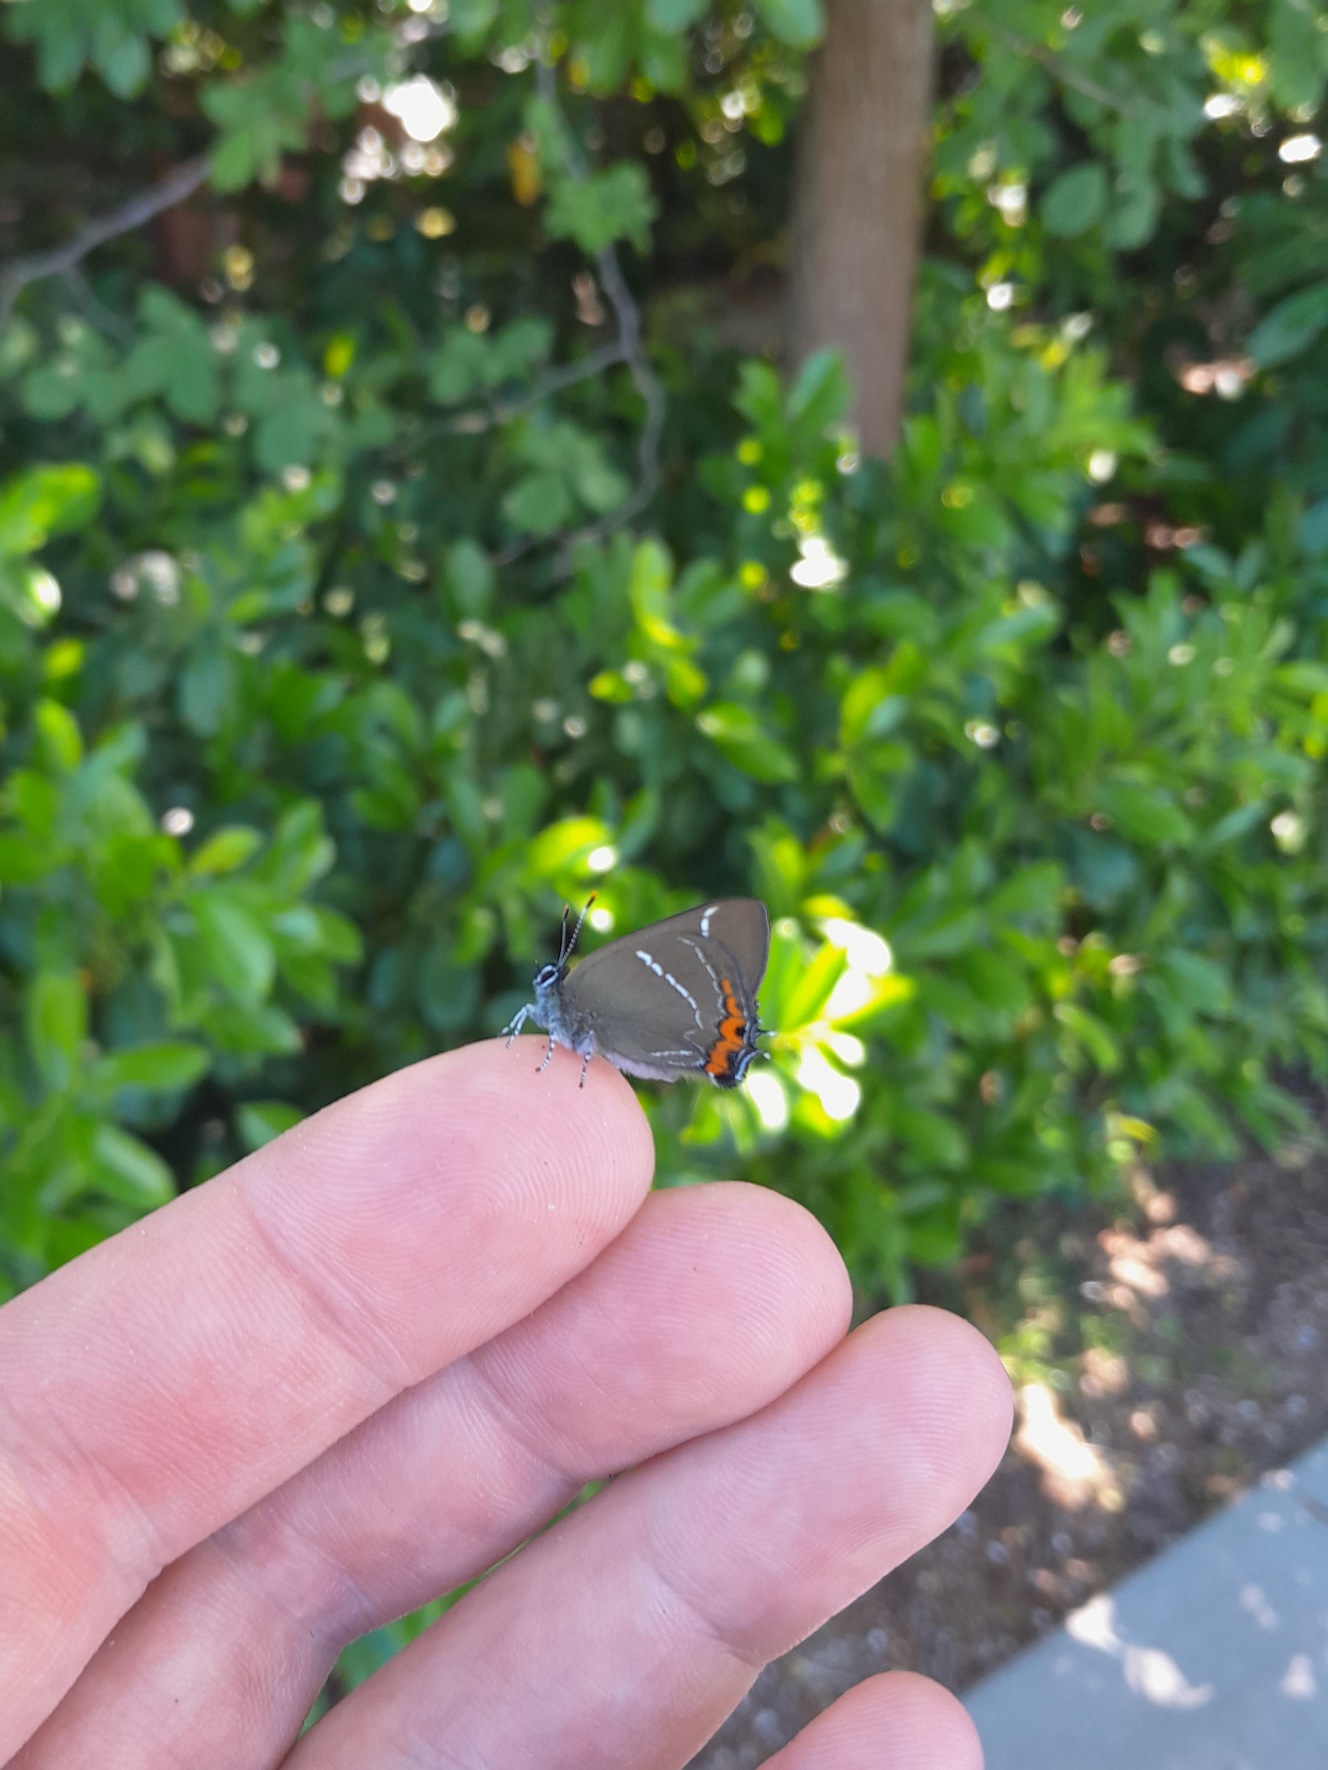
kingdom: Animalia
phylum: Arthropoda
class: Insecta
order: Lepidoptera
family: Lycaenidae
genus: Satyrium
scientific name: Satyrium w-album
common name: Det hvide W
